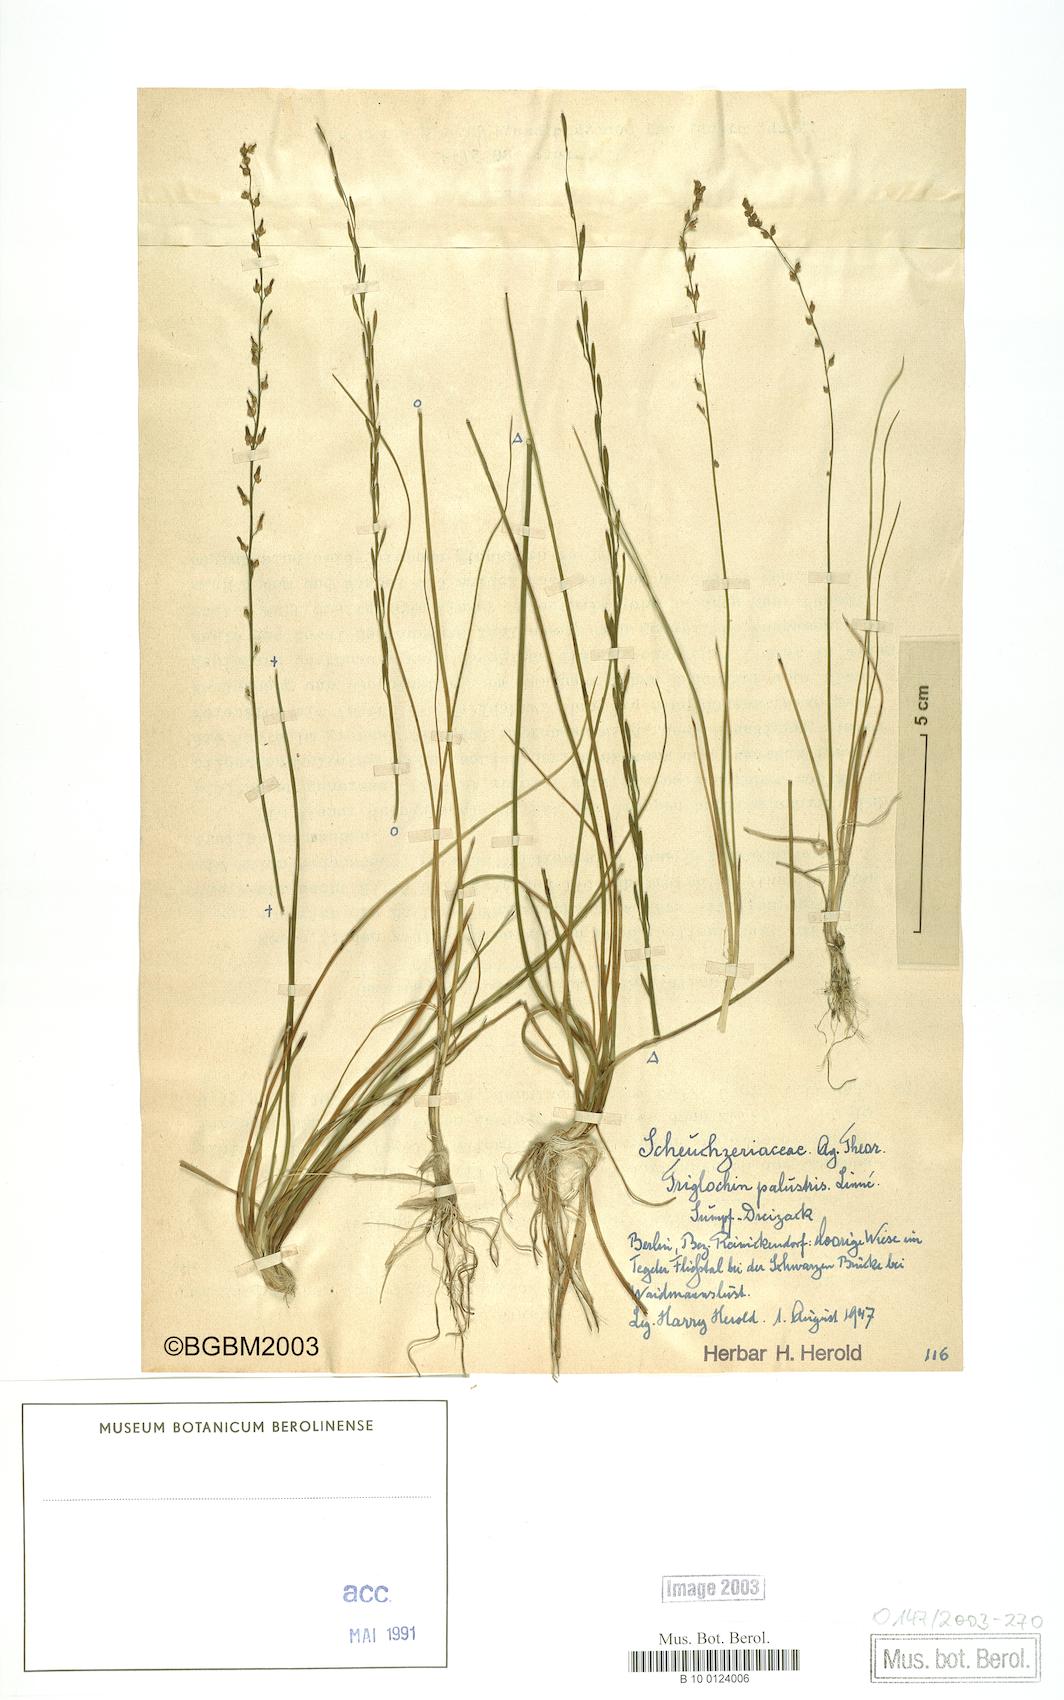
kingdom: Plantae
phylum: Tracheophyta
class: Liliopsida
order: Alismatales
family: Juncaginaceae
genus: Triglochin
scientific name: Triglochin palustris
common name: Marsh arrowgrass
